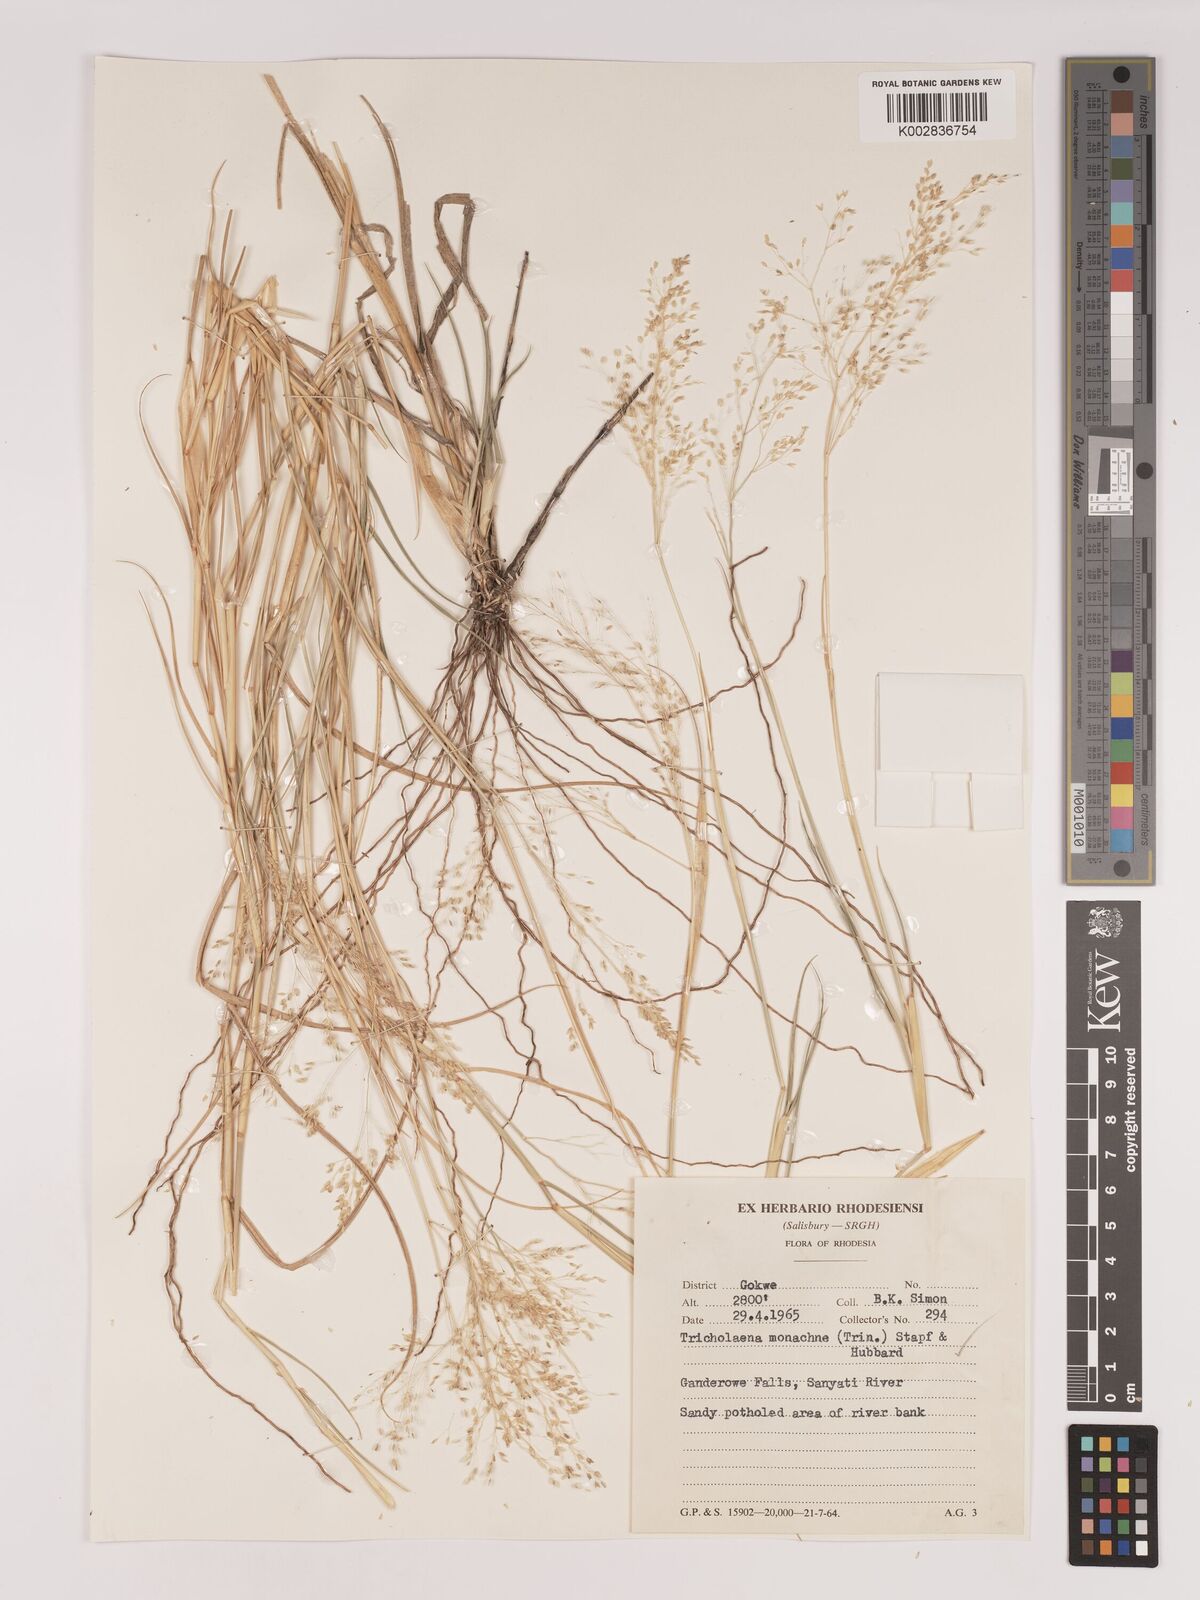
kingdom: Plantae
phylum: Tracheophyta
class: Liliopsida
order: Poales
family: Poaceae
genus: Tricholaena
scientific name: Tricholaena monachne
